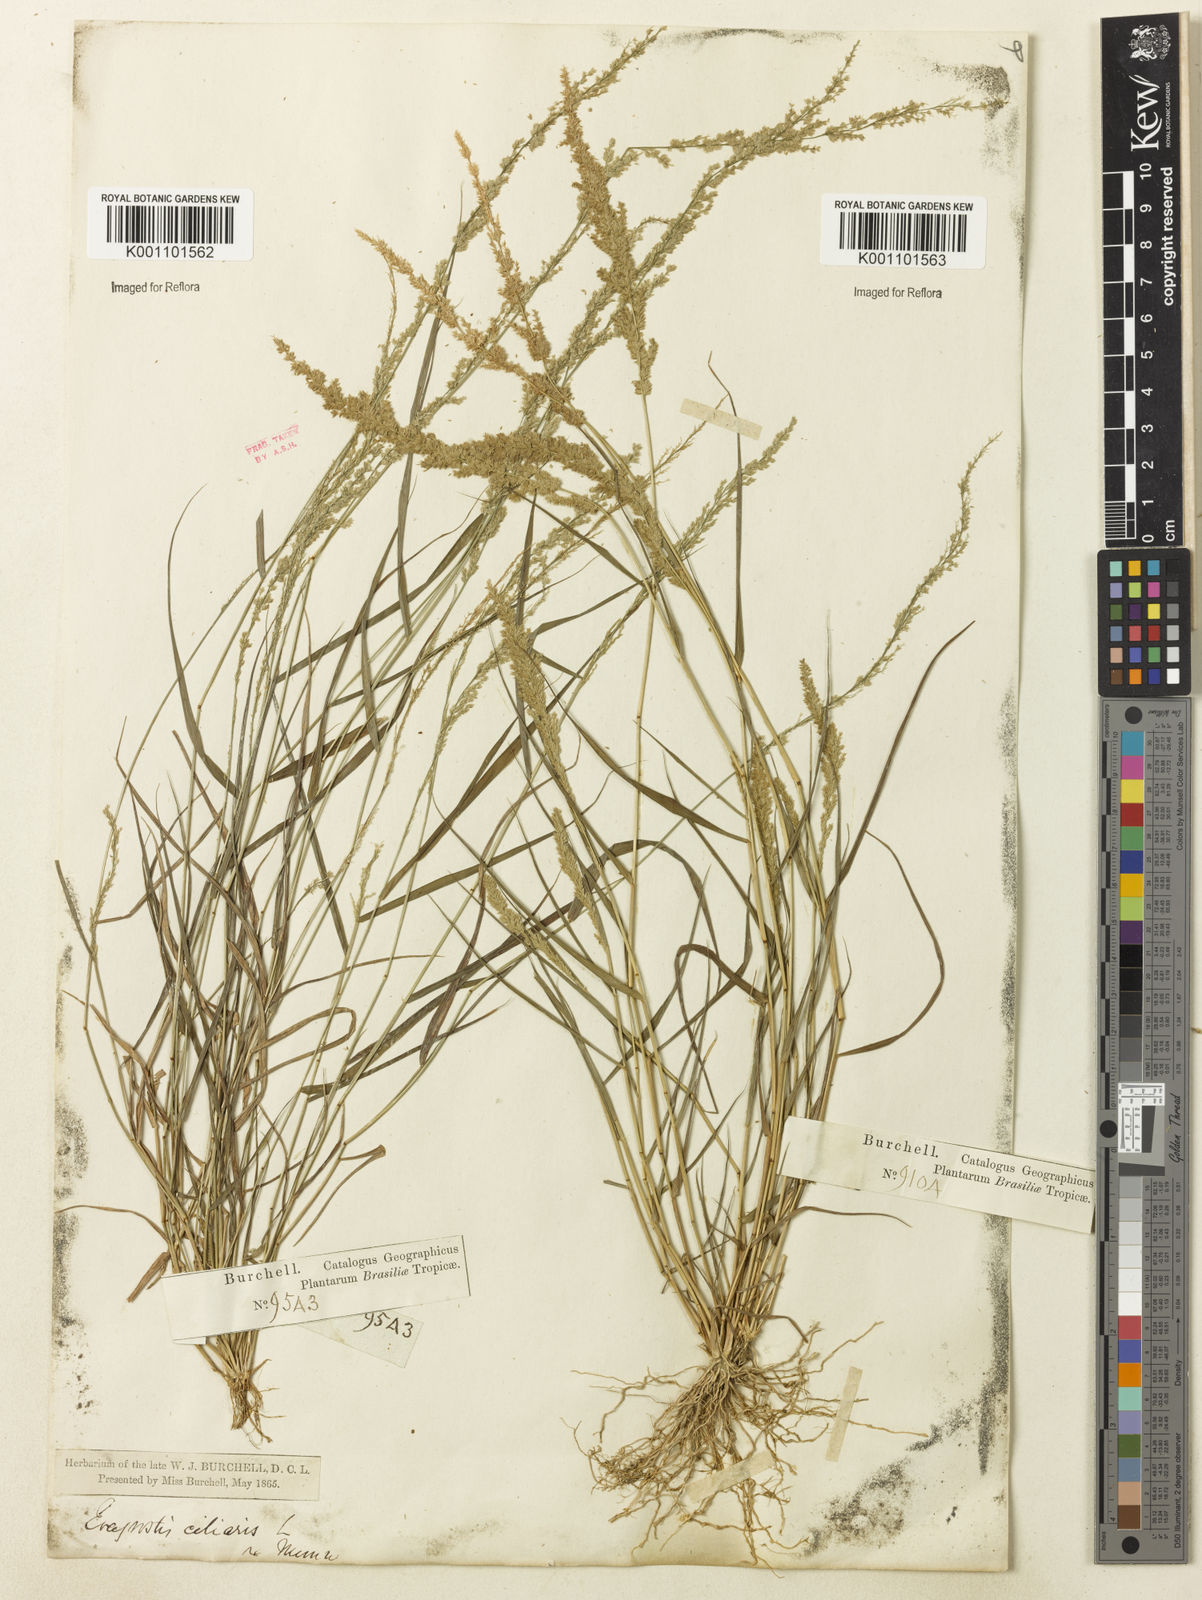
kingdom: Plantae
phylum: Tracheophyta
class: Liliopsida
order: Poales
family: Poaceae
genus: Eragrostis
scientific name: Eragrostis ciliaris
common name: Gophertail lovegrass
